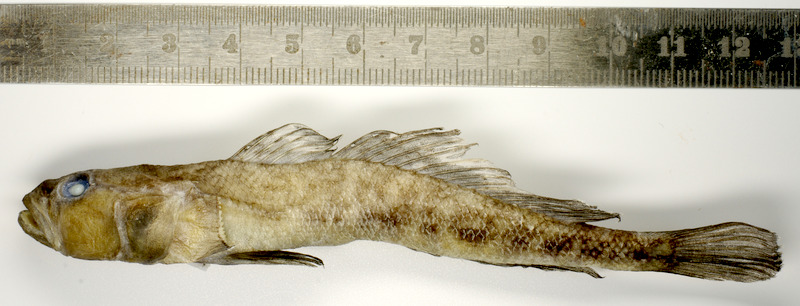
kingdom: Animalia
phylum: Chordata
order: Perciformes
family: Gobiidae
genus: Neogobius
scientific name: Neogobius fluviatilis
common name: Monkey goby
